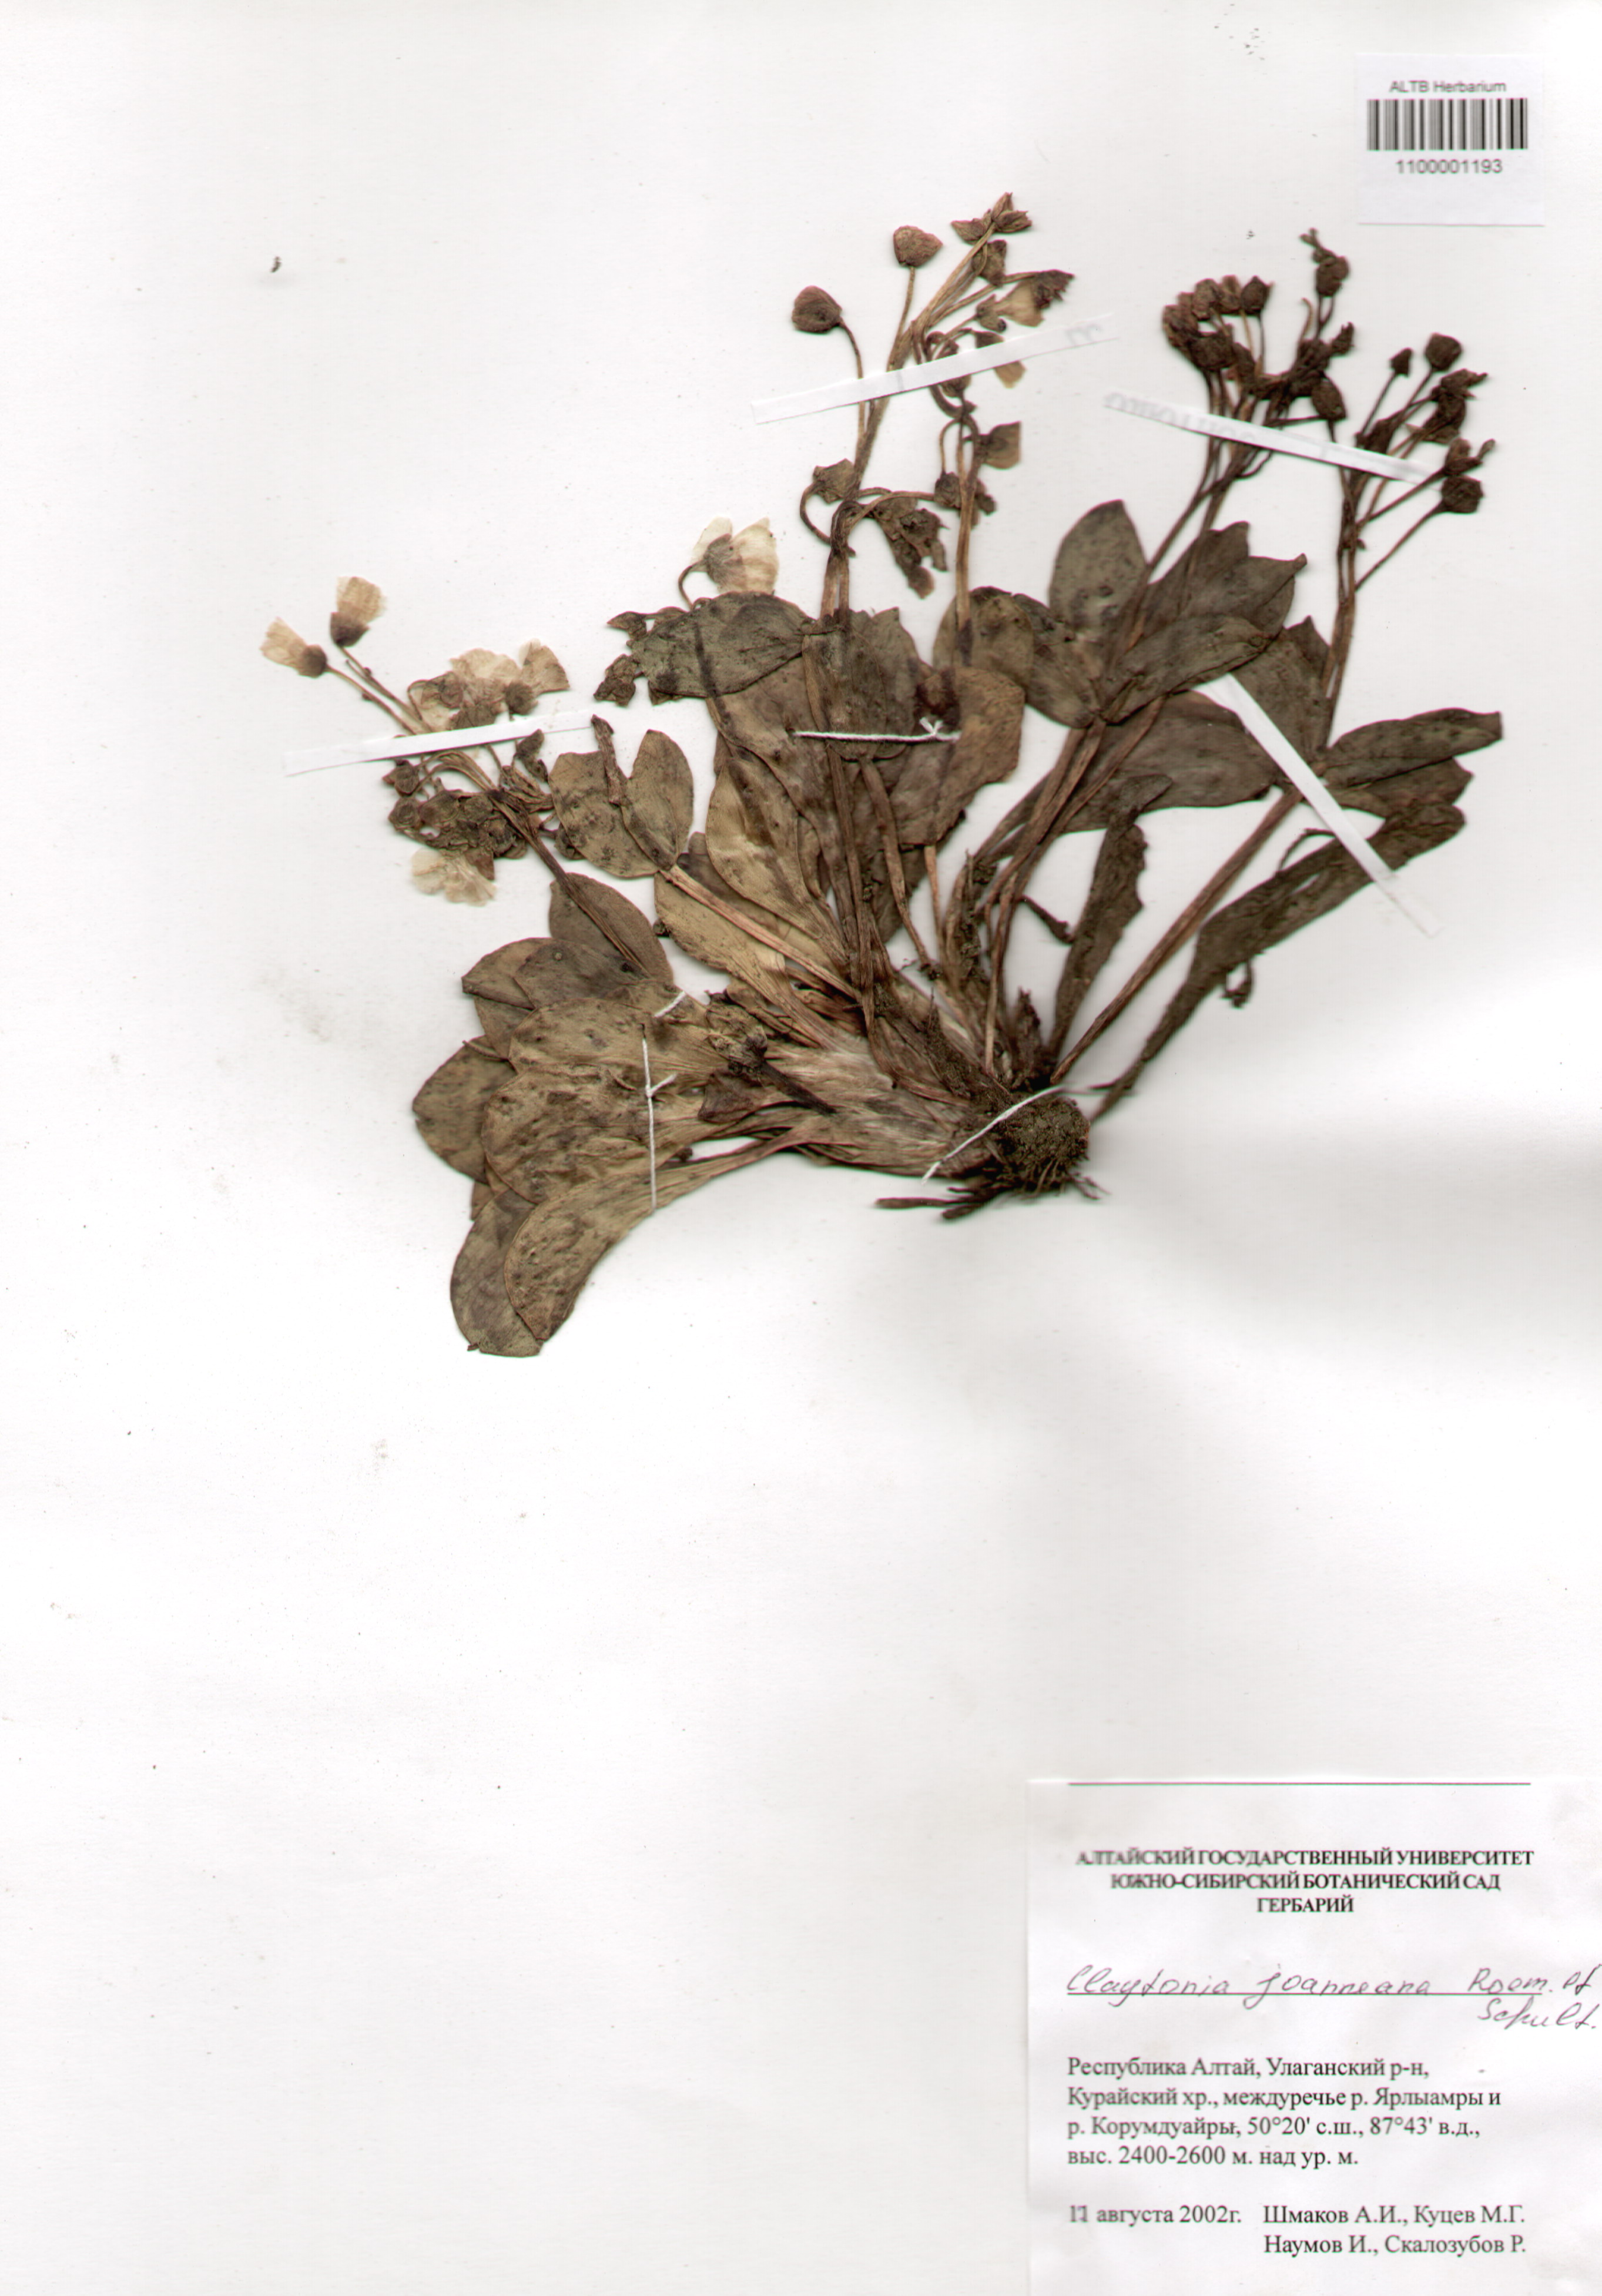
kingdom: Plantae
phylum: Tracheophyta
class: Magnoliopsida
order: Caryophyllales
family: Montiaceae
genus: Claytonia
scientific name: Claytonia joanneana
